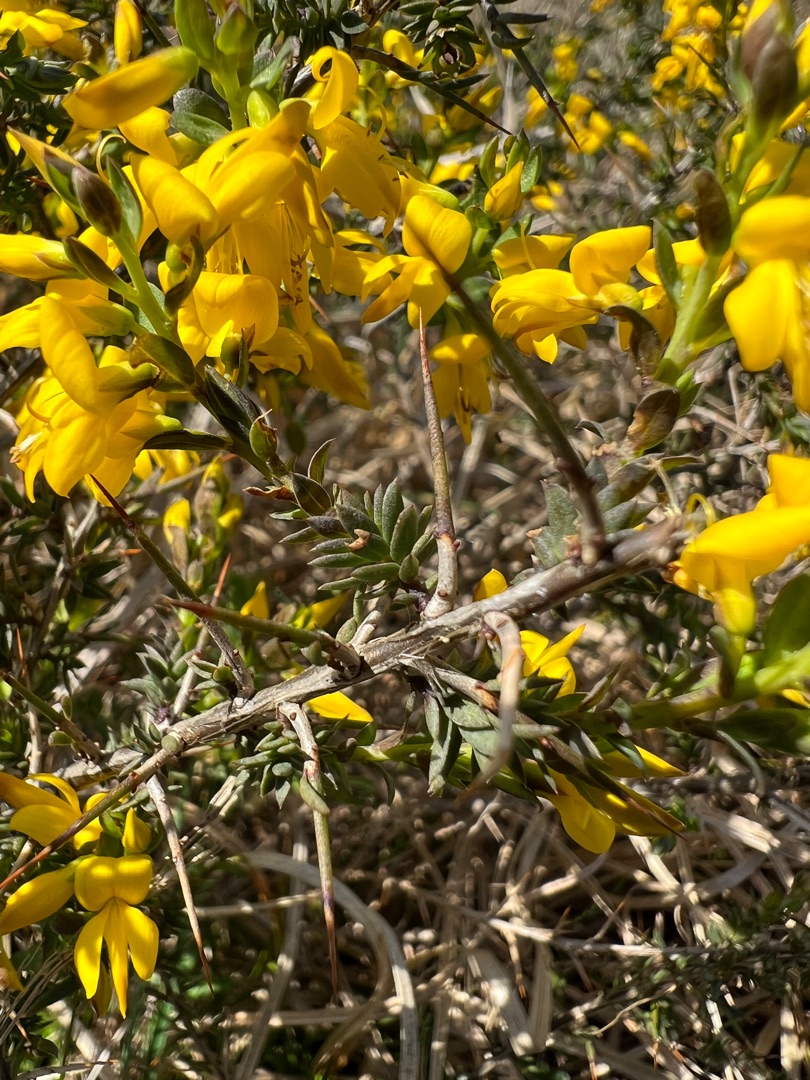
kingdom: Plantae
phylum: Tracheophyta
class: Magnoliopsida
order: Fabales
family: Fabaceae
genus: Genista
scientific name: Genista anglica
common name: Engelsk visse
